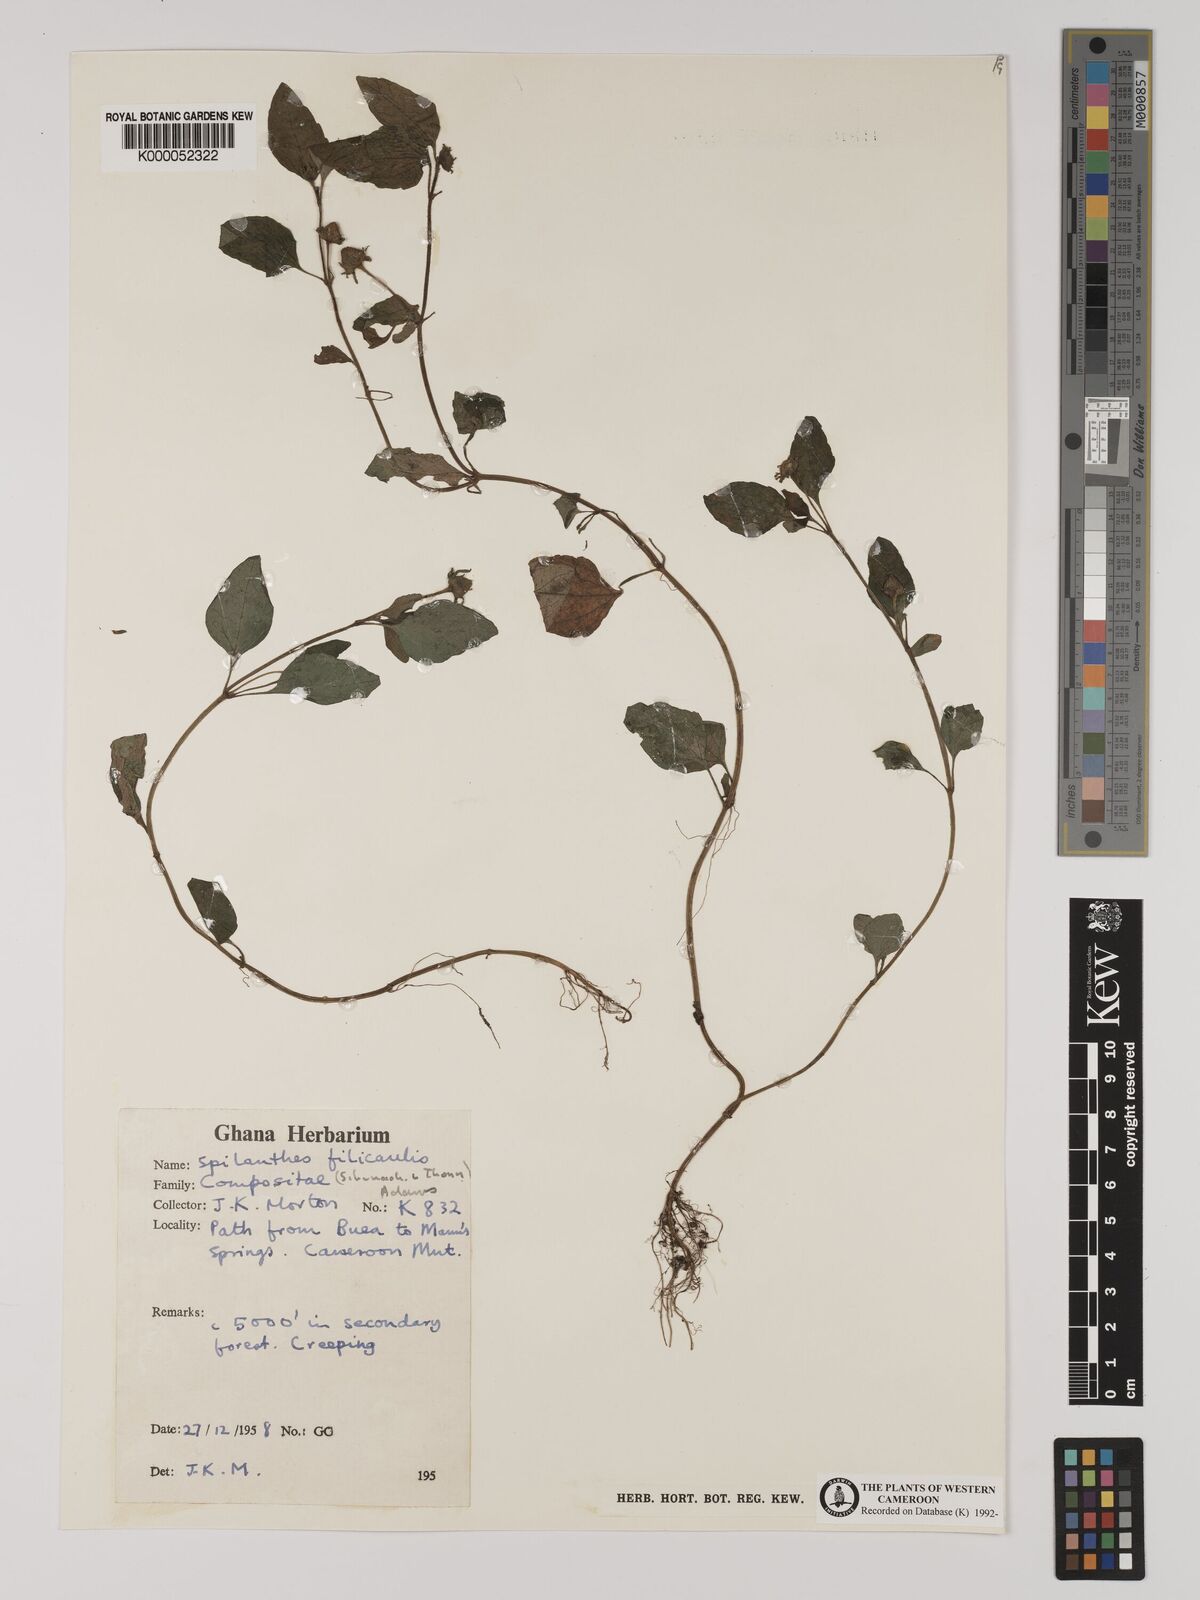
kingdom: Plantae
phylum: Tracheophyta
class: Magnoliopsida
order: Asterales
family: Asteraceae
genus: Acmella
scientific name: Acmella caulirhiza
